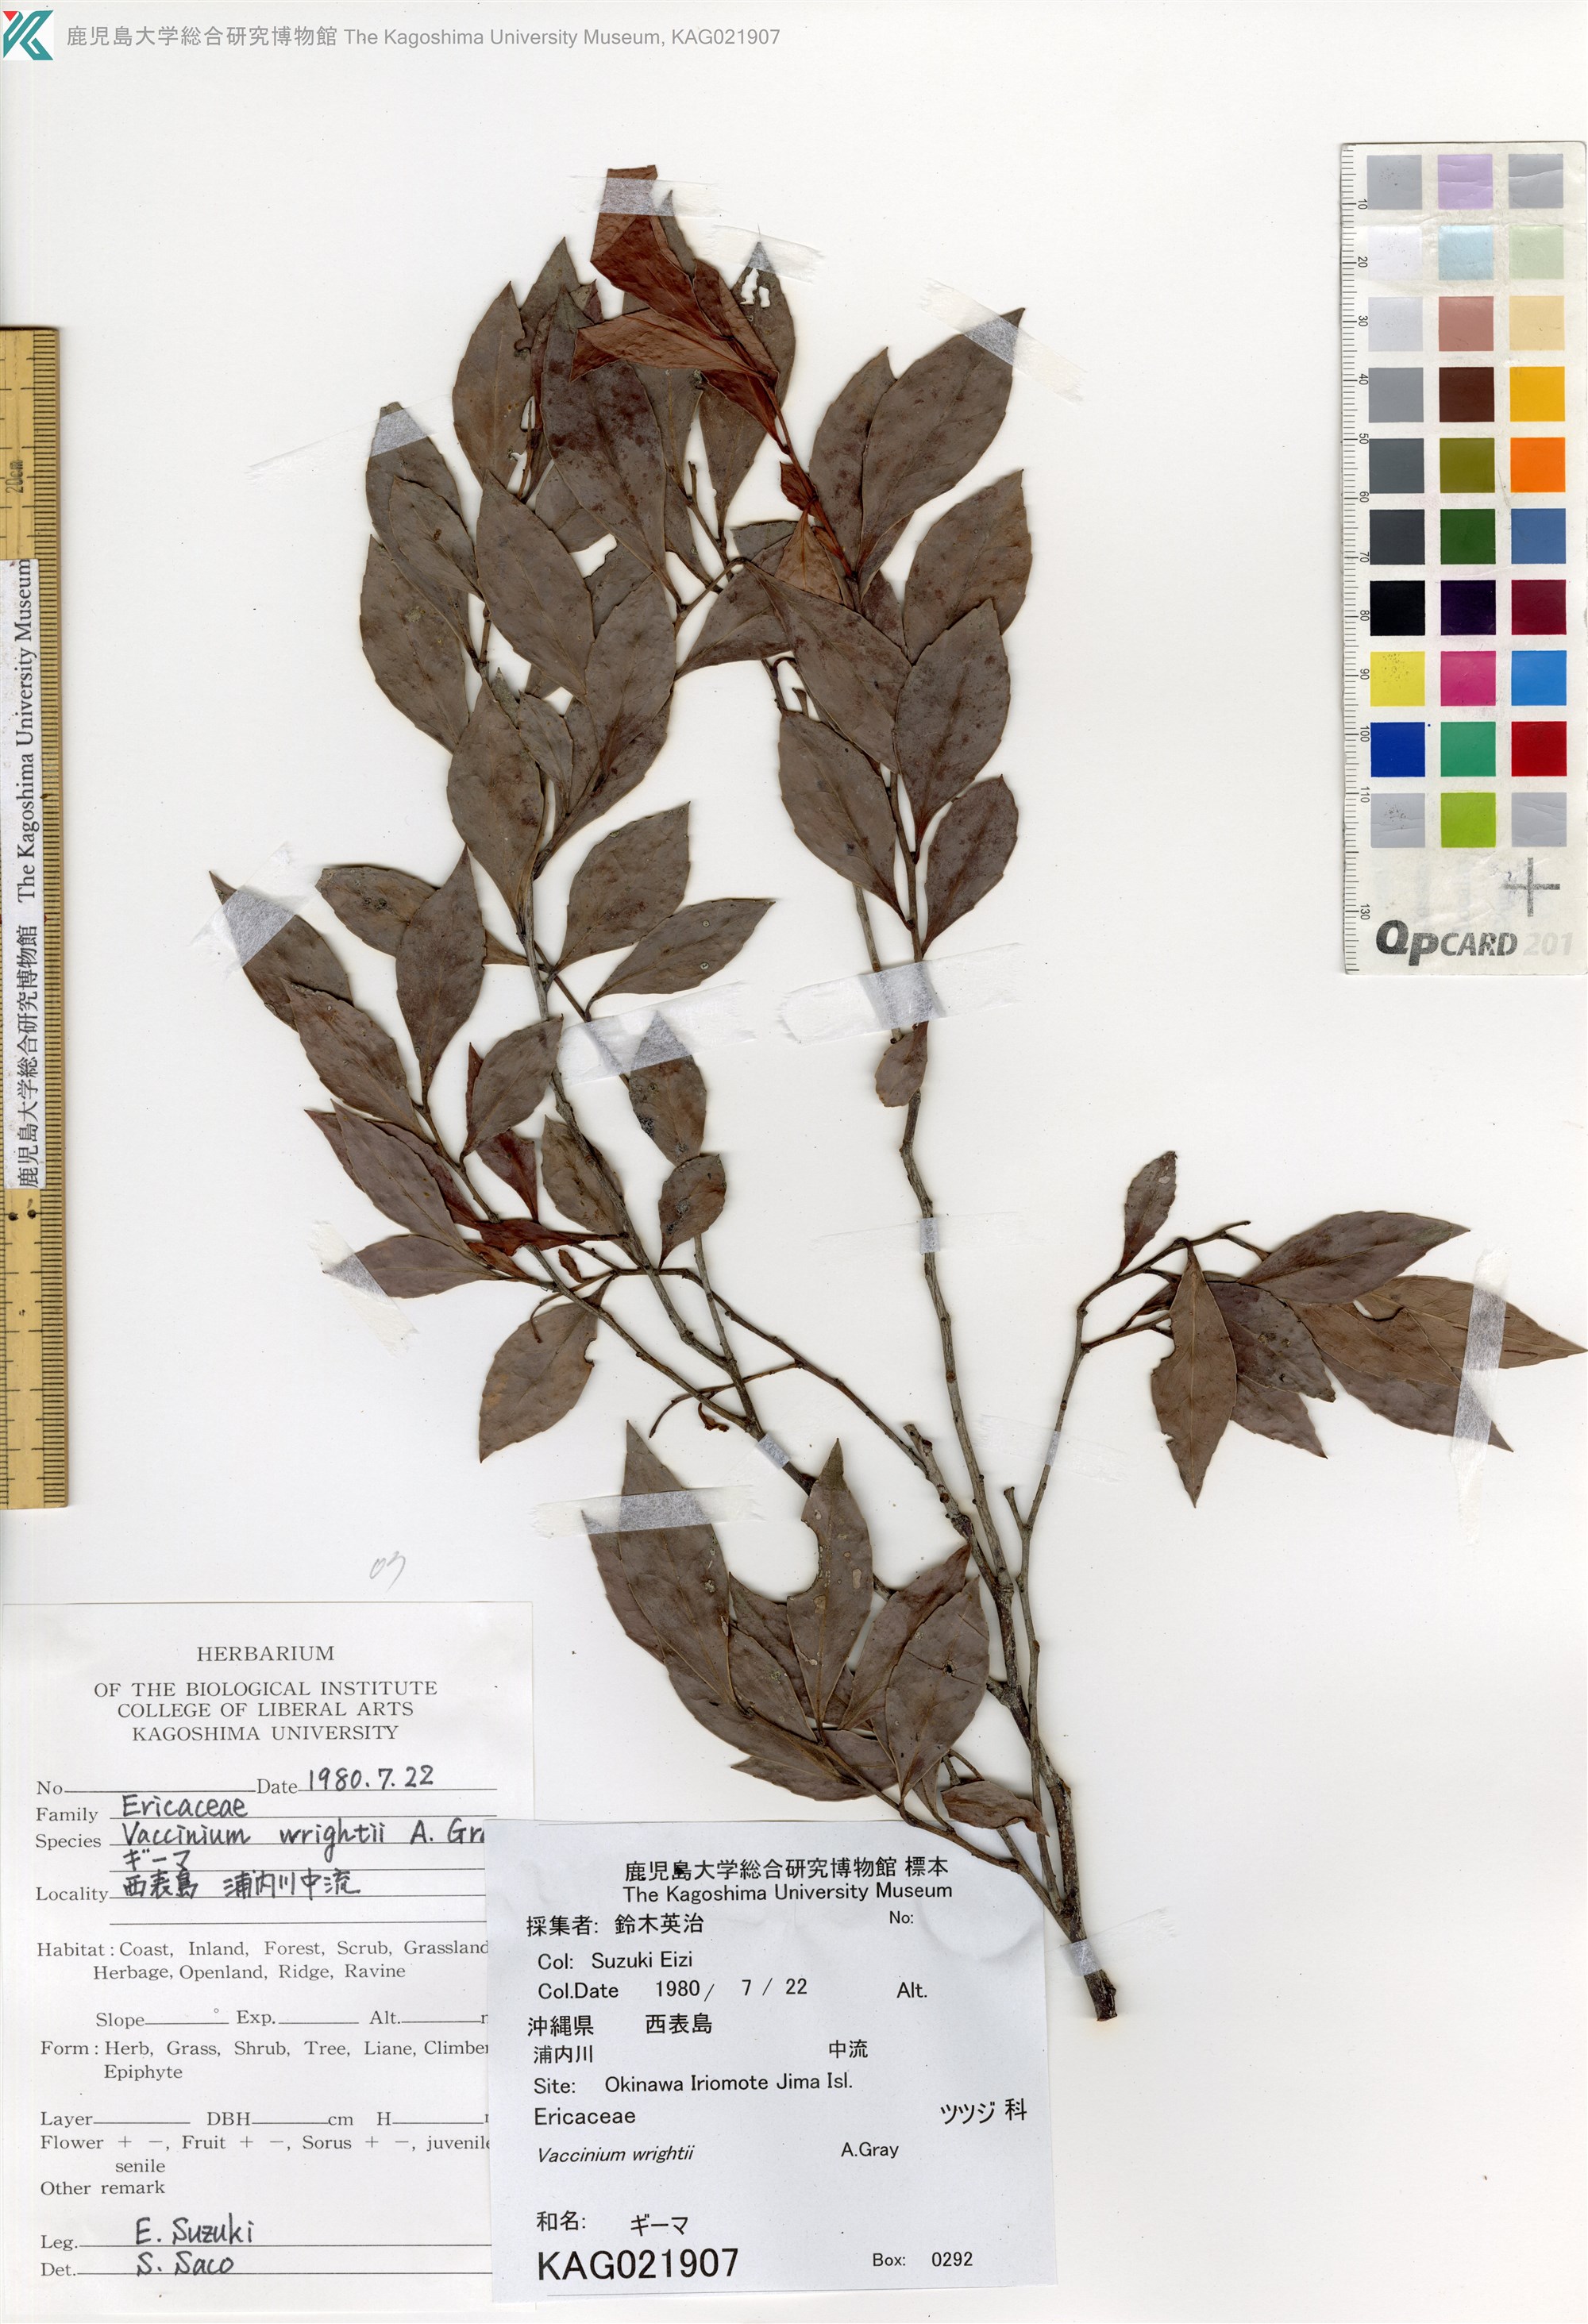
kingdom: Plantae
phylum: Tracheophyta
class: Magnoliopsida
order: Ericales
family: Ericaceae
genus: Vaccinium
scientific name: Vaccinium wrightii
